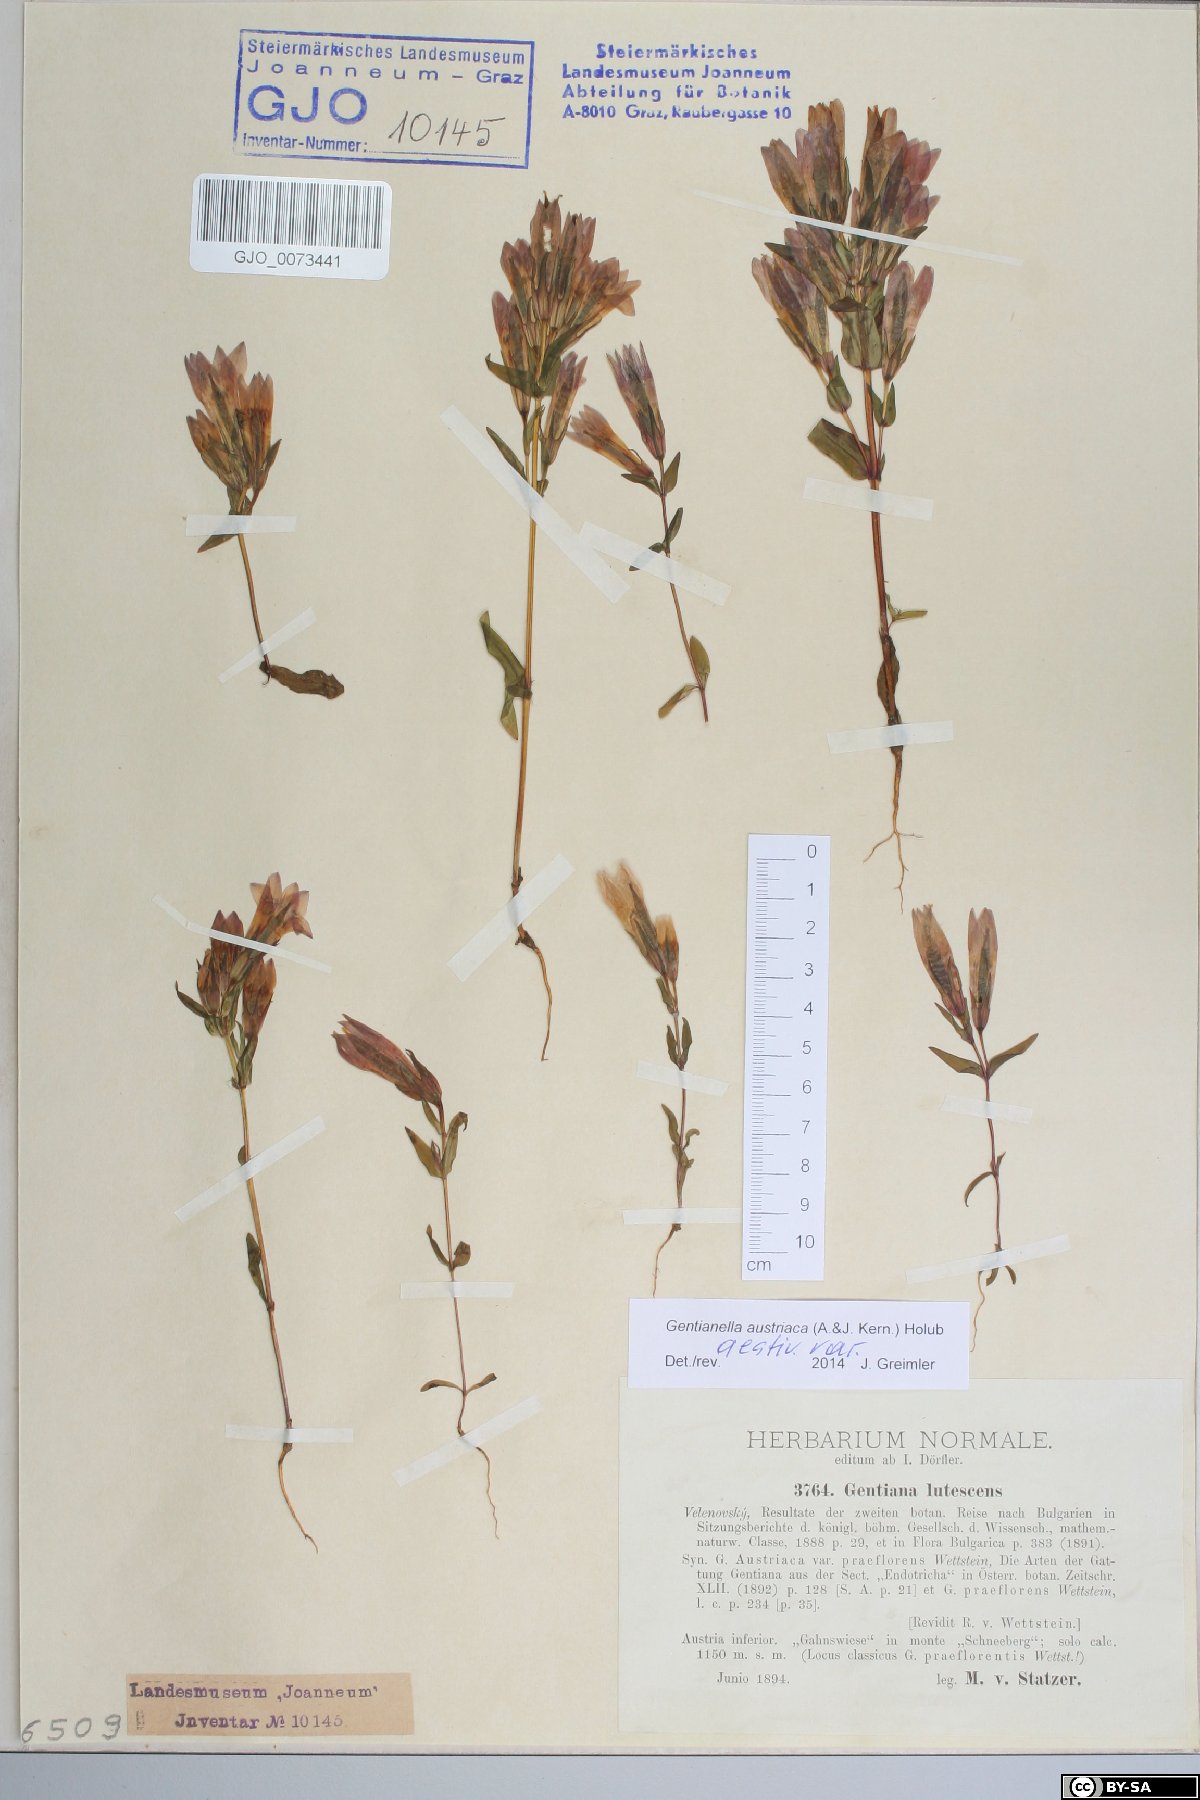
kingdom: Plantae
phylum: Tracheophyta
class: Magnoliopsida
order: Gentianales
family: Gentianaceae
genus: Gentianella
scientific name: Gentianella austriaca
